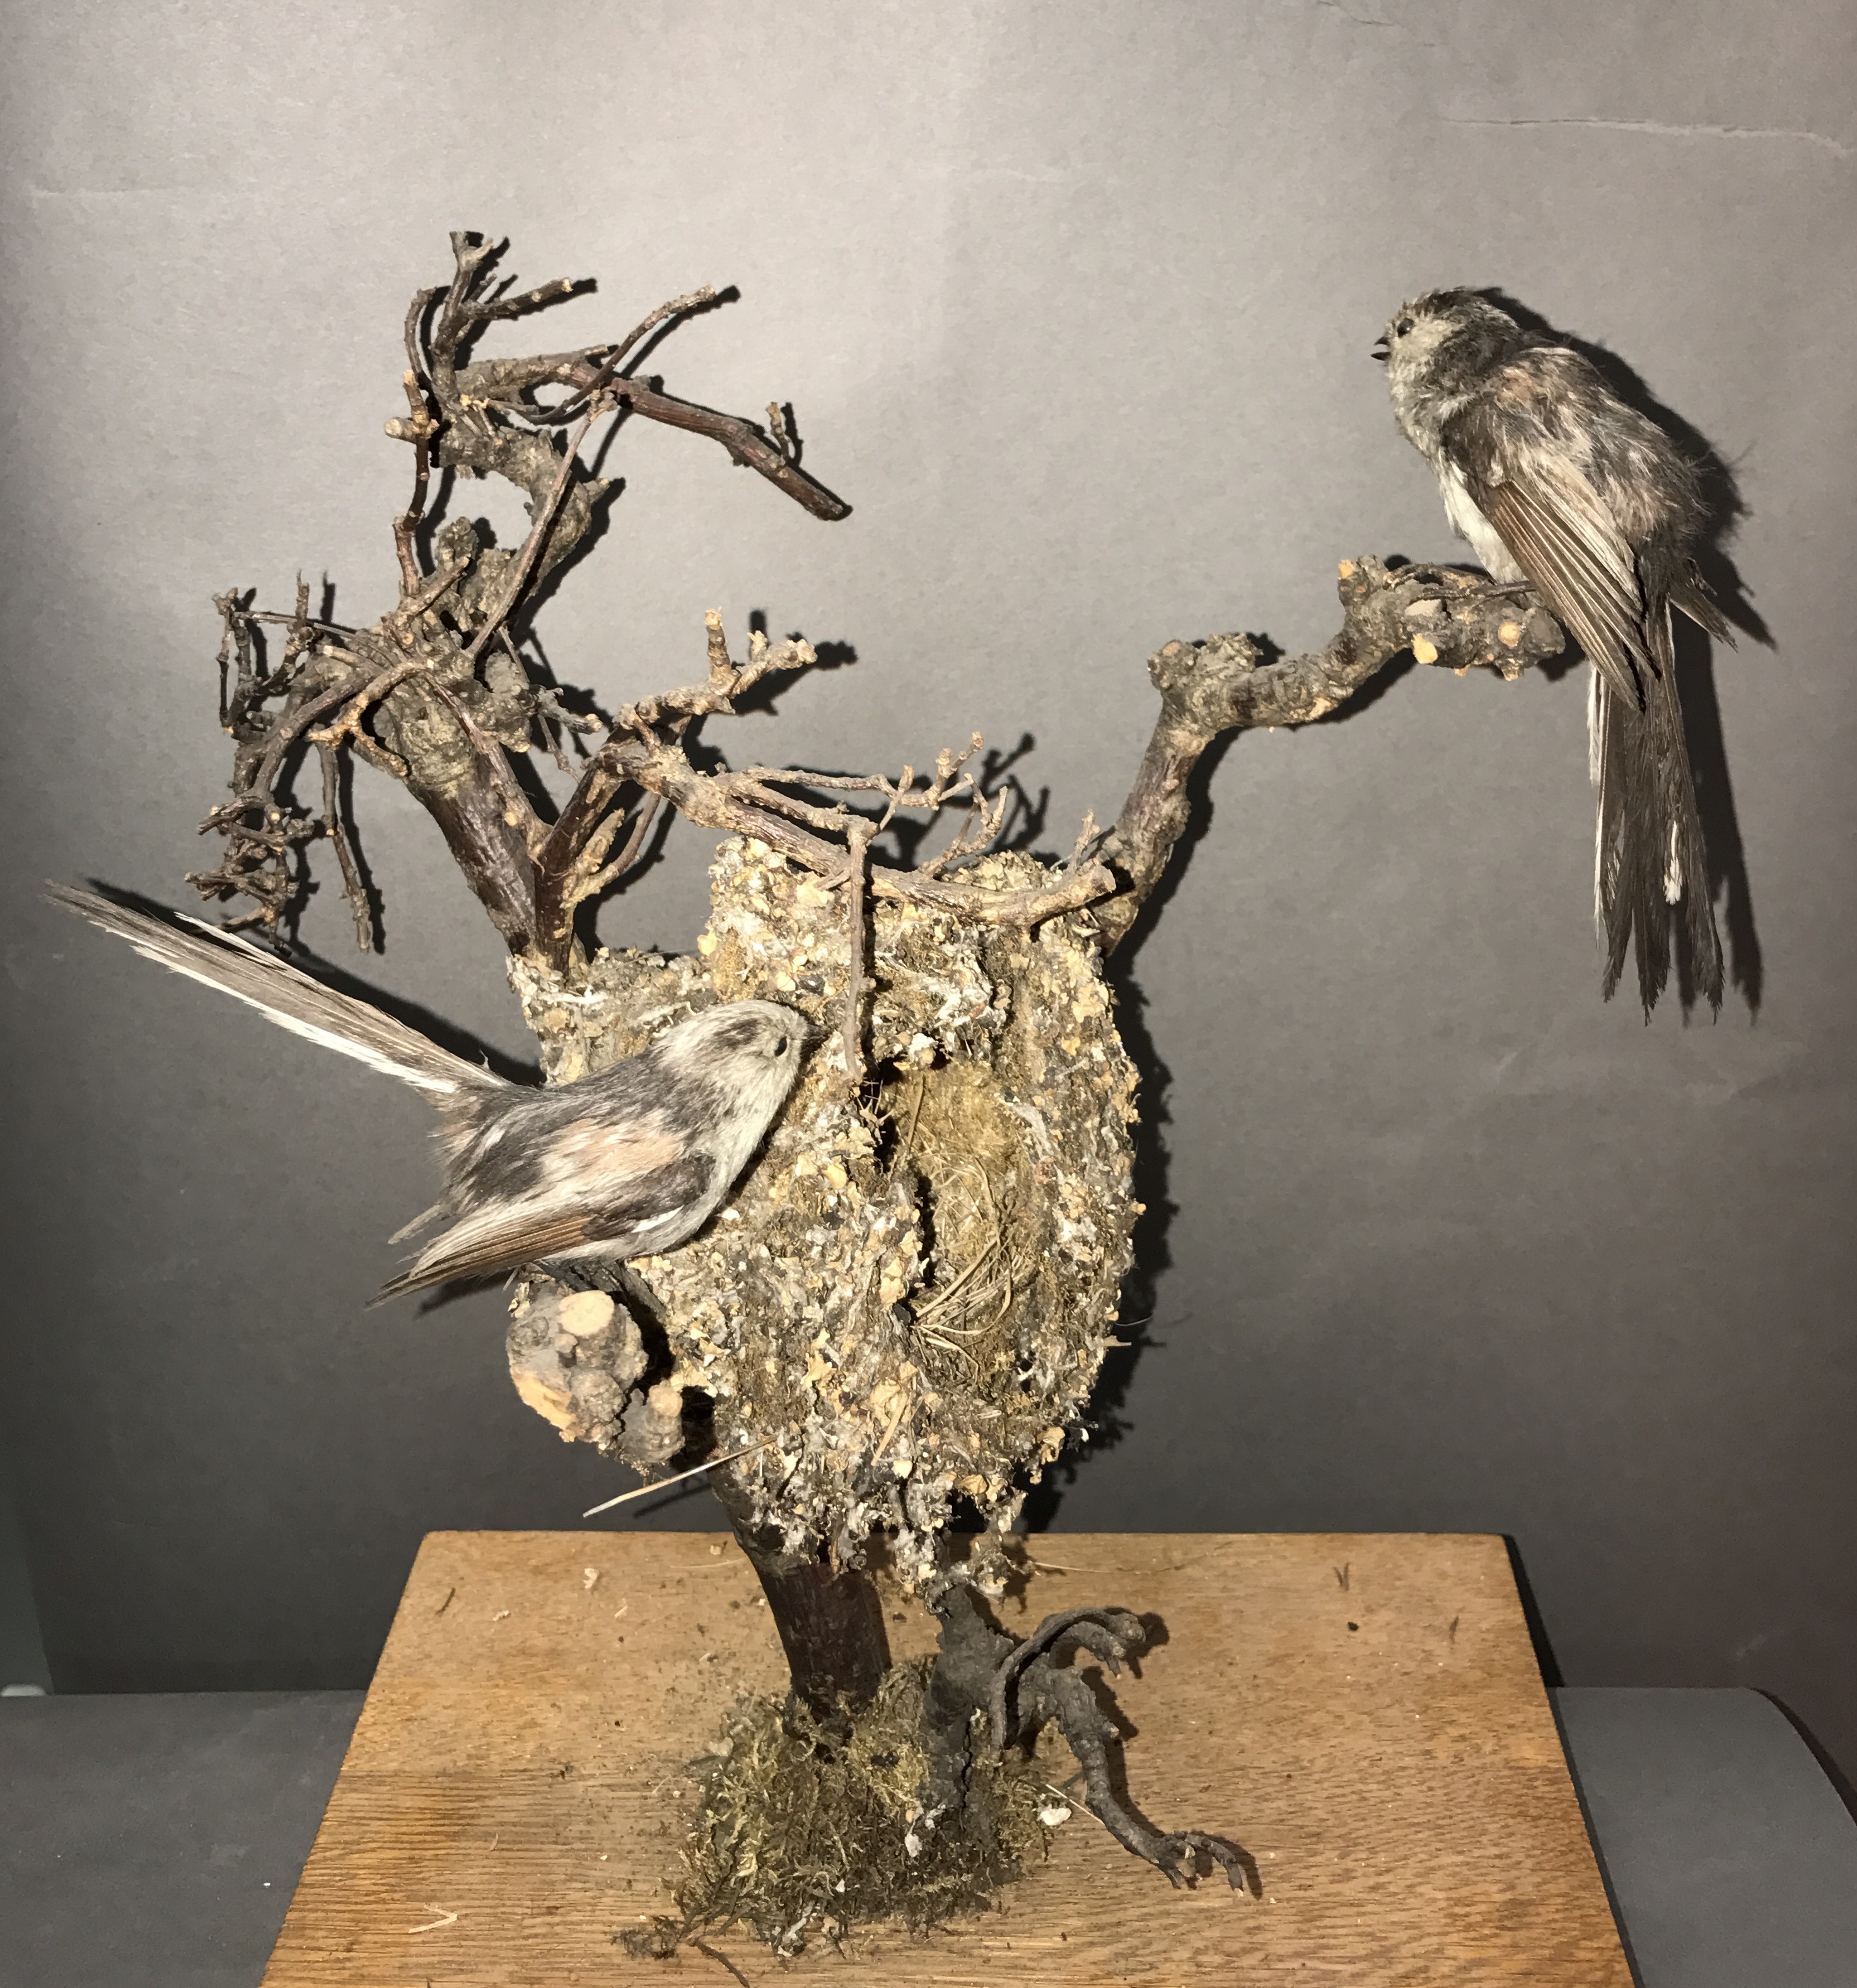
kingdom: Animalia
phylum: Chordata
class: Aves
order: Passeriformes
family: Aegithalidae
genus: Aegithalos
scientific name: Aegithalos caudatus
